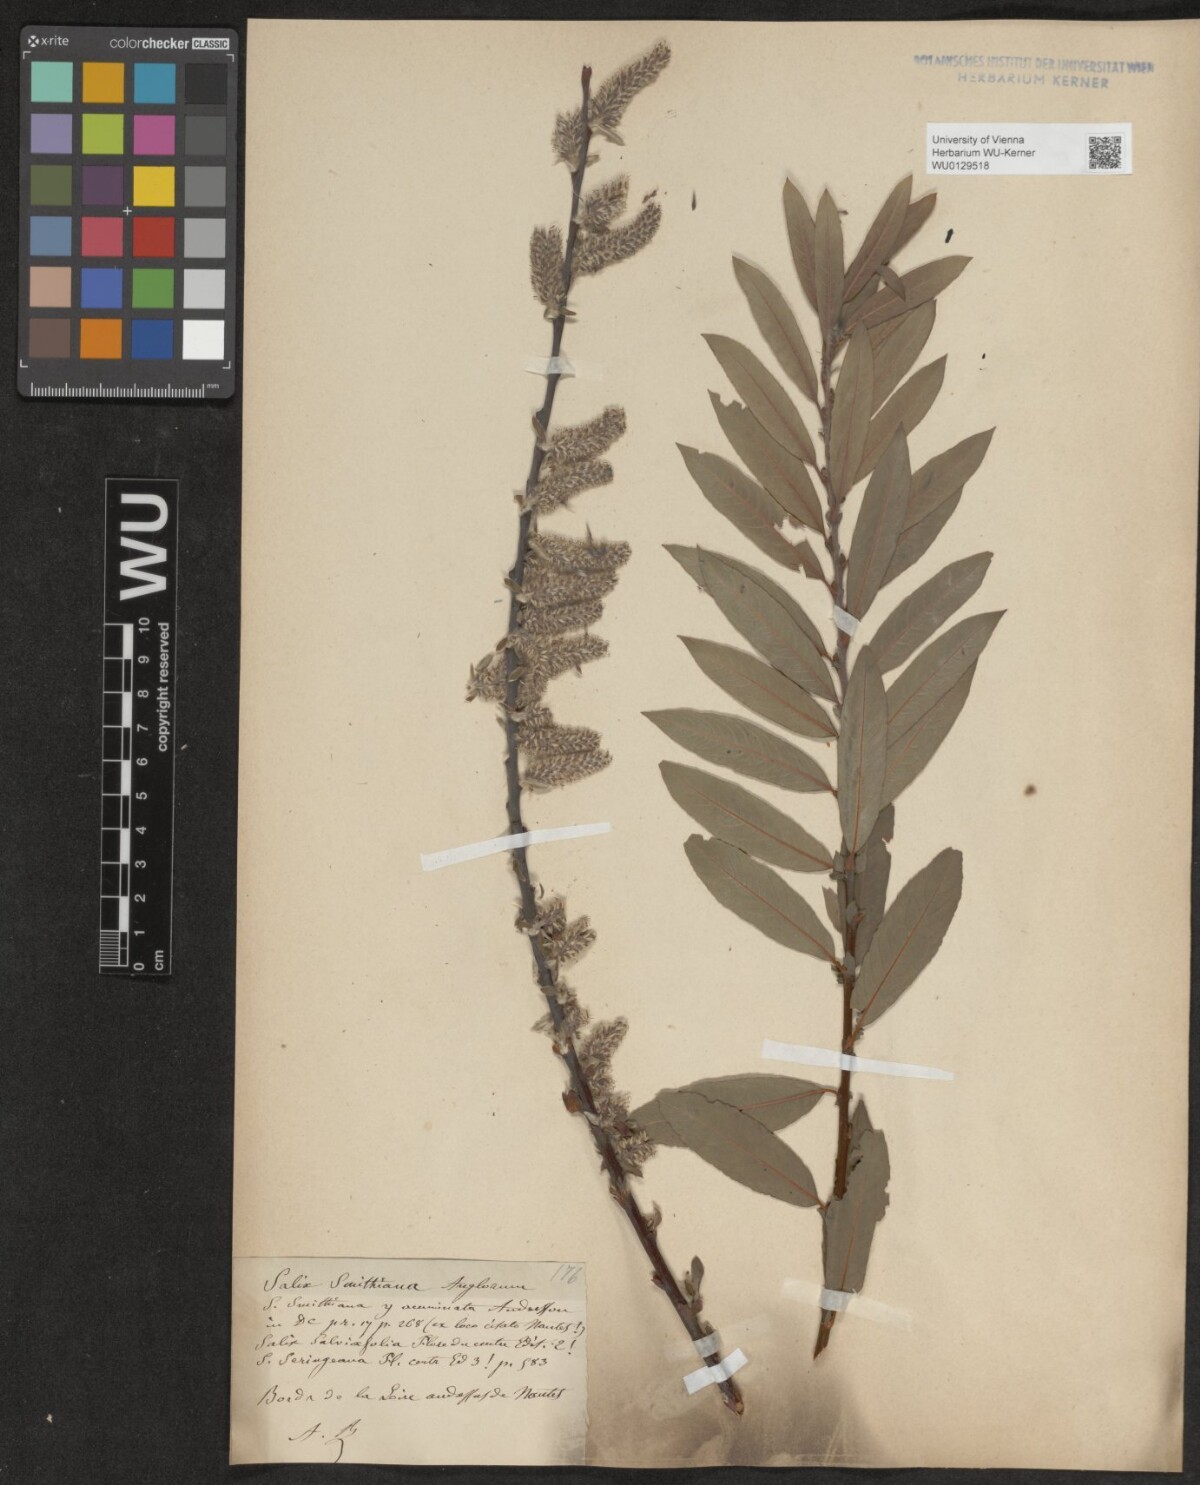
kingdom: Plantae
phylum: Tracheophyta
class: Magnoliopsida
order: Malpighiales
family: Salicaceae
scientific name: Salicaceae
